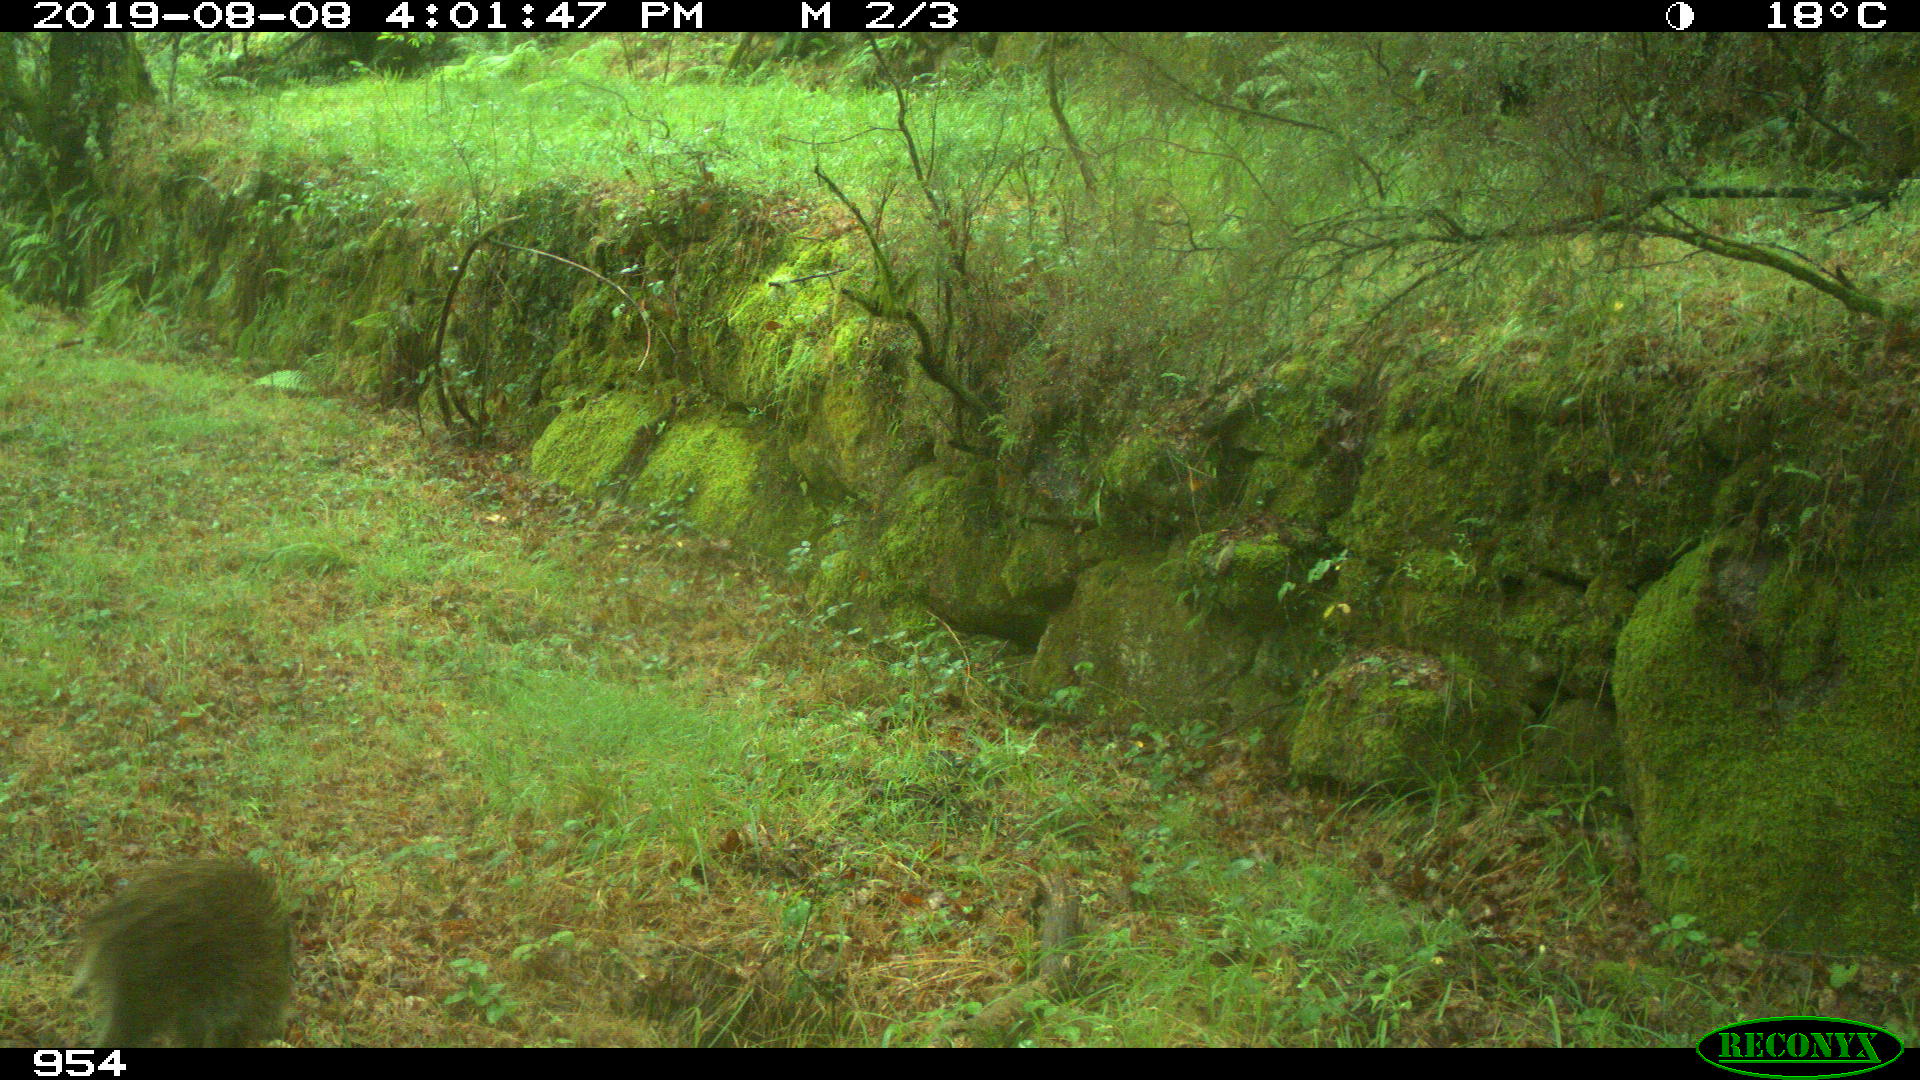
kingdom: Animalia
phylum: Chordata
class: Mammalia
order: Artiodactyla
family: Suidae
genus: Sus
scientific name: Sus scrofa
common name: Wild boar
